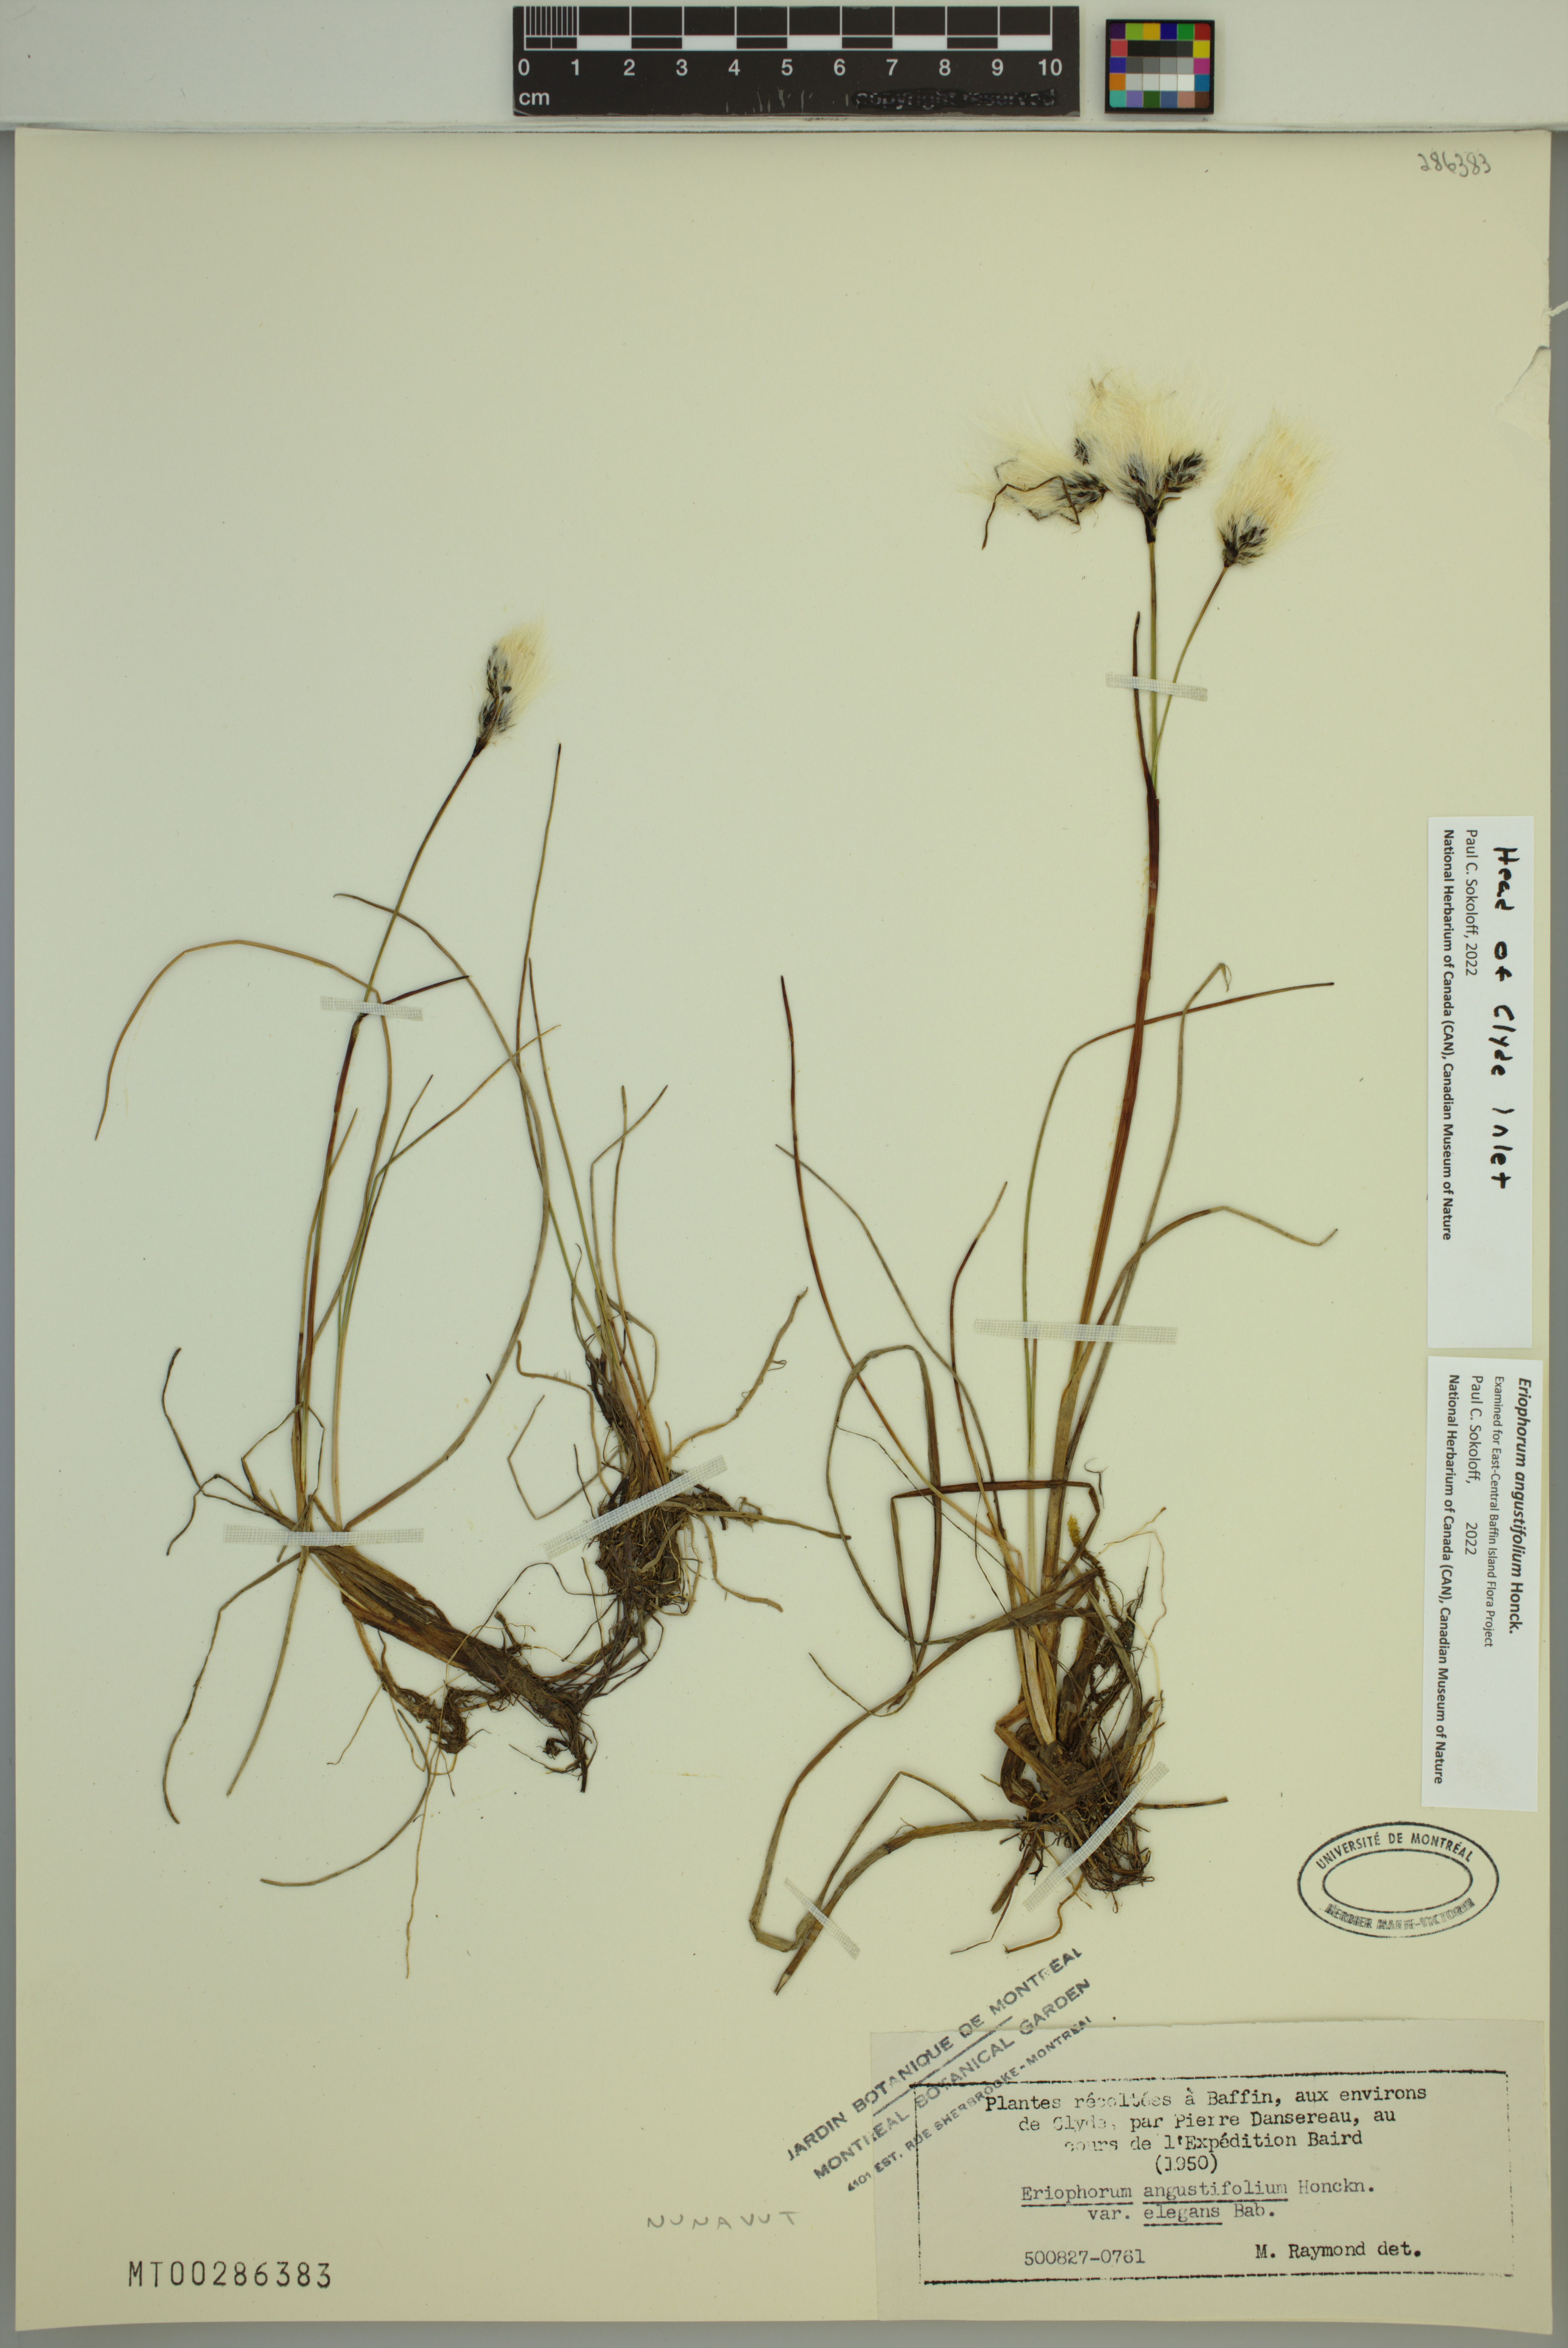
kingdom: Plantae
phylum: Tracheophyta
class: Liliopsida
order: Poales
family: Cyperaceae
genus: Eriophorum
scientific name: Eriophorum angustifolium
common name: Common cottongrass
